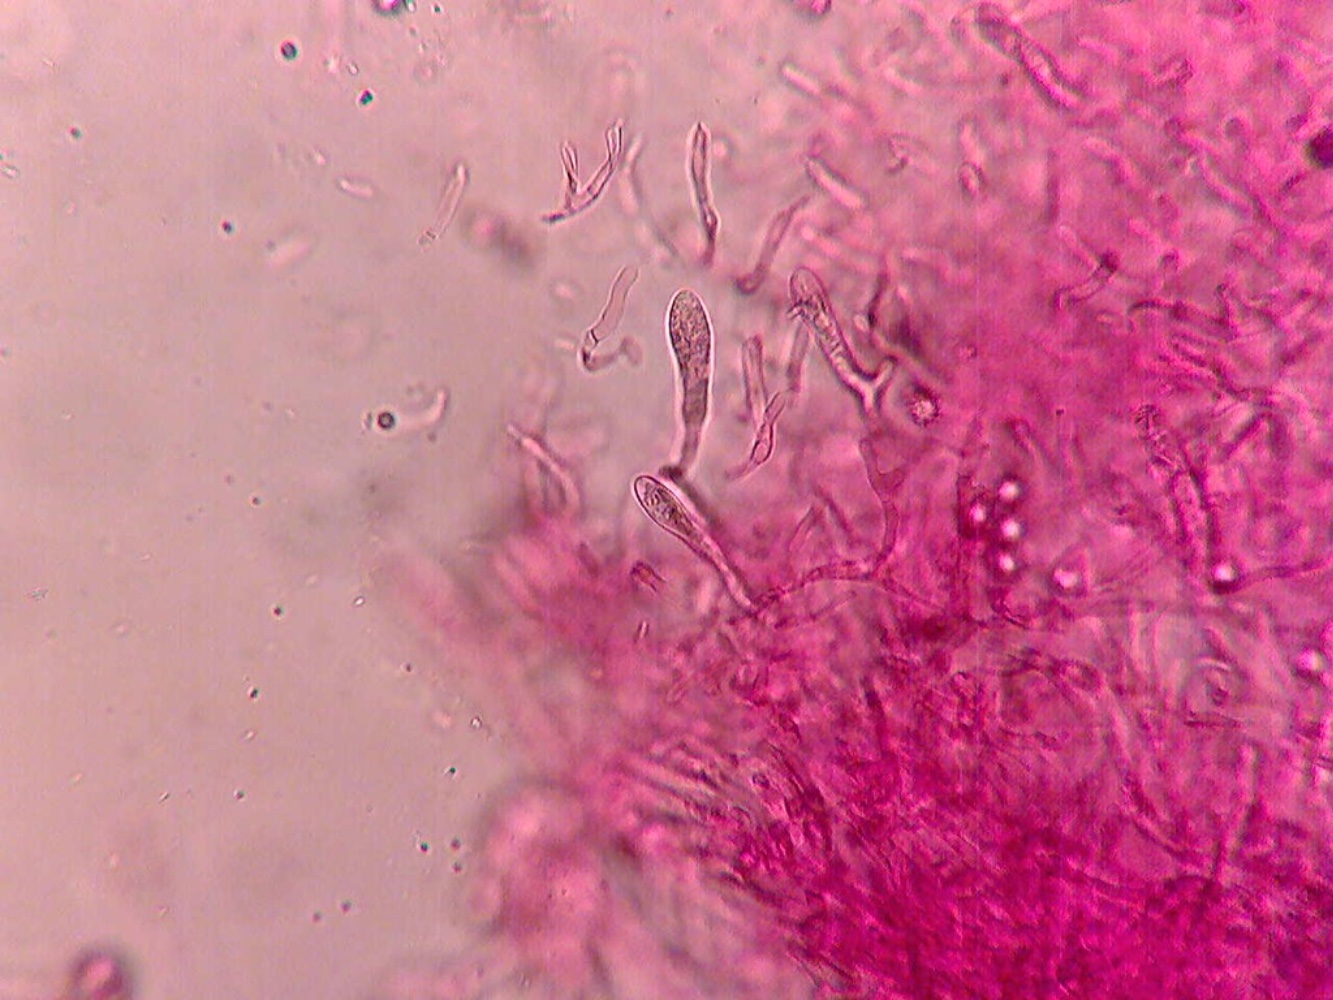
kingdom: Fungi
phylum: Basidiomycota
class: Agaricomycetes
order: Russulales
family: Russulaceae
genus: Russula
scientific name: Russula
